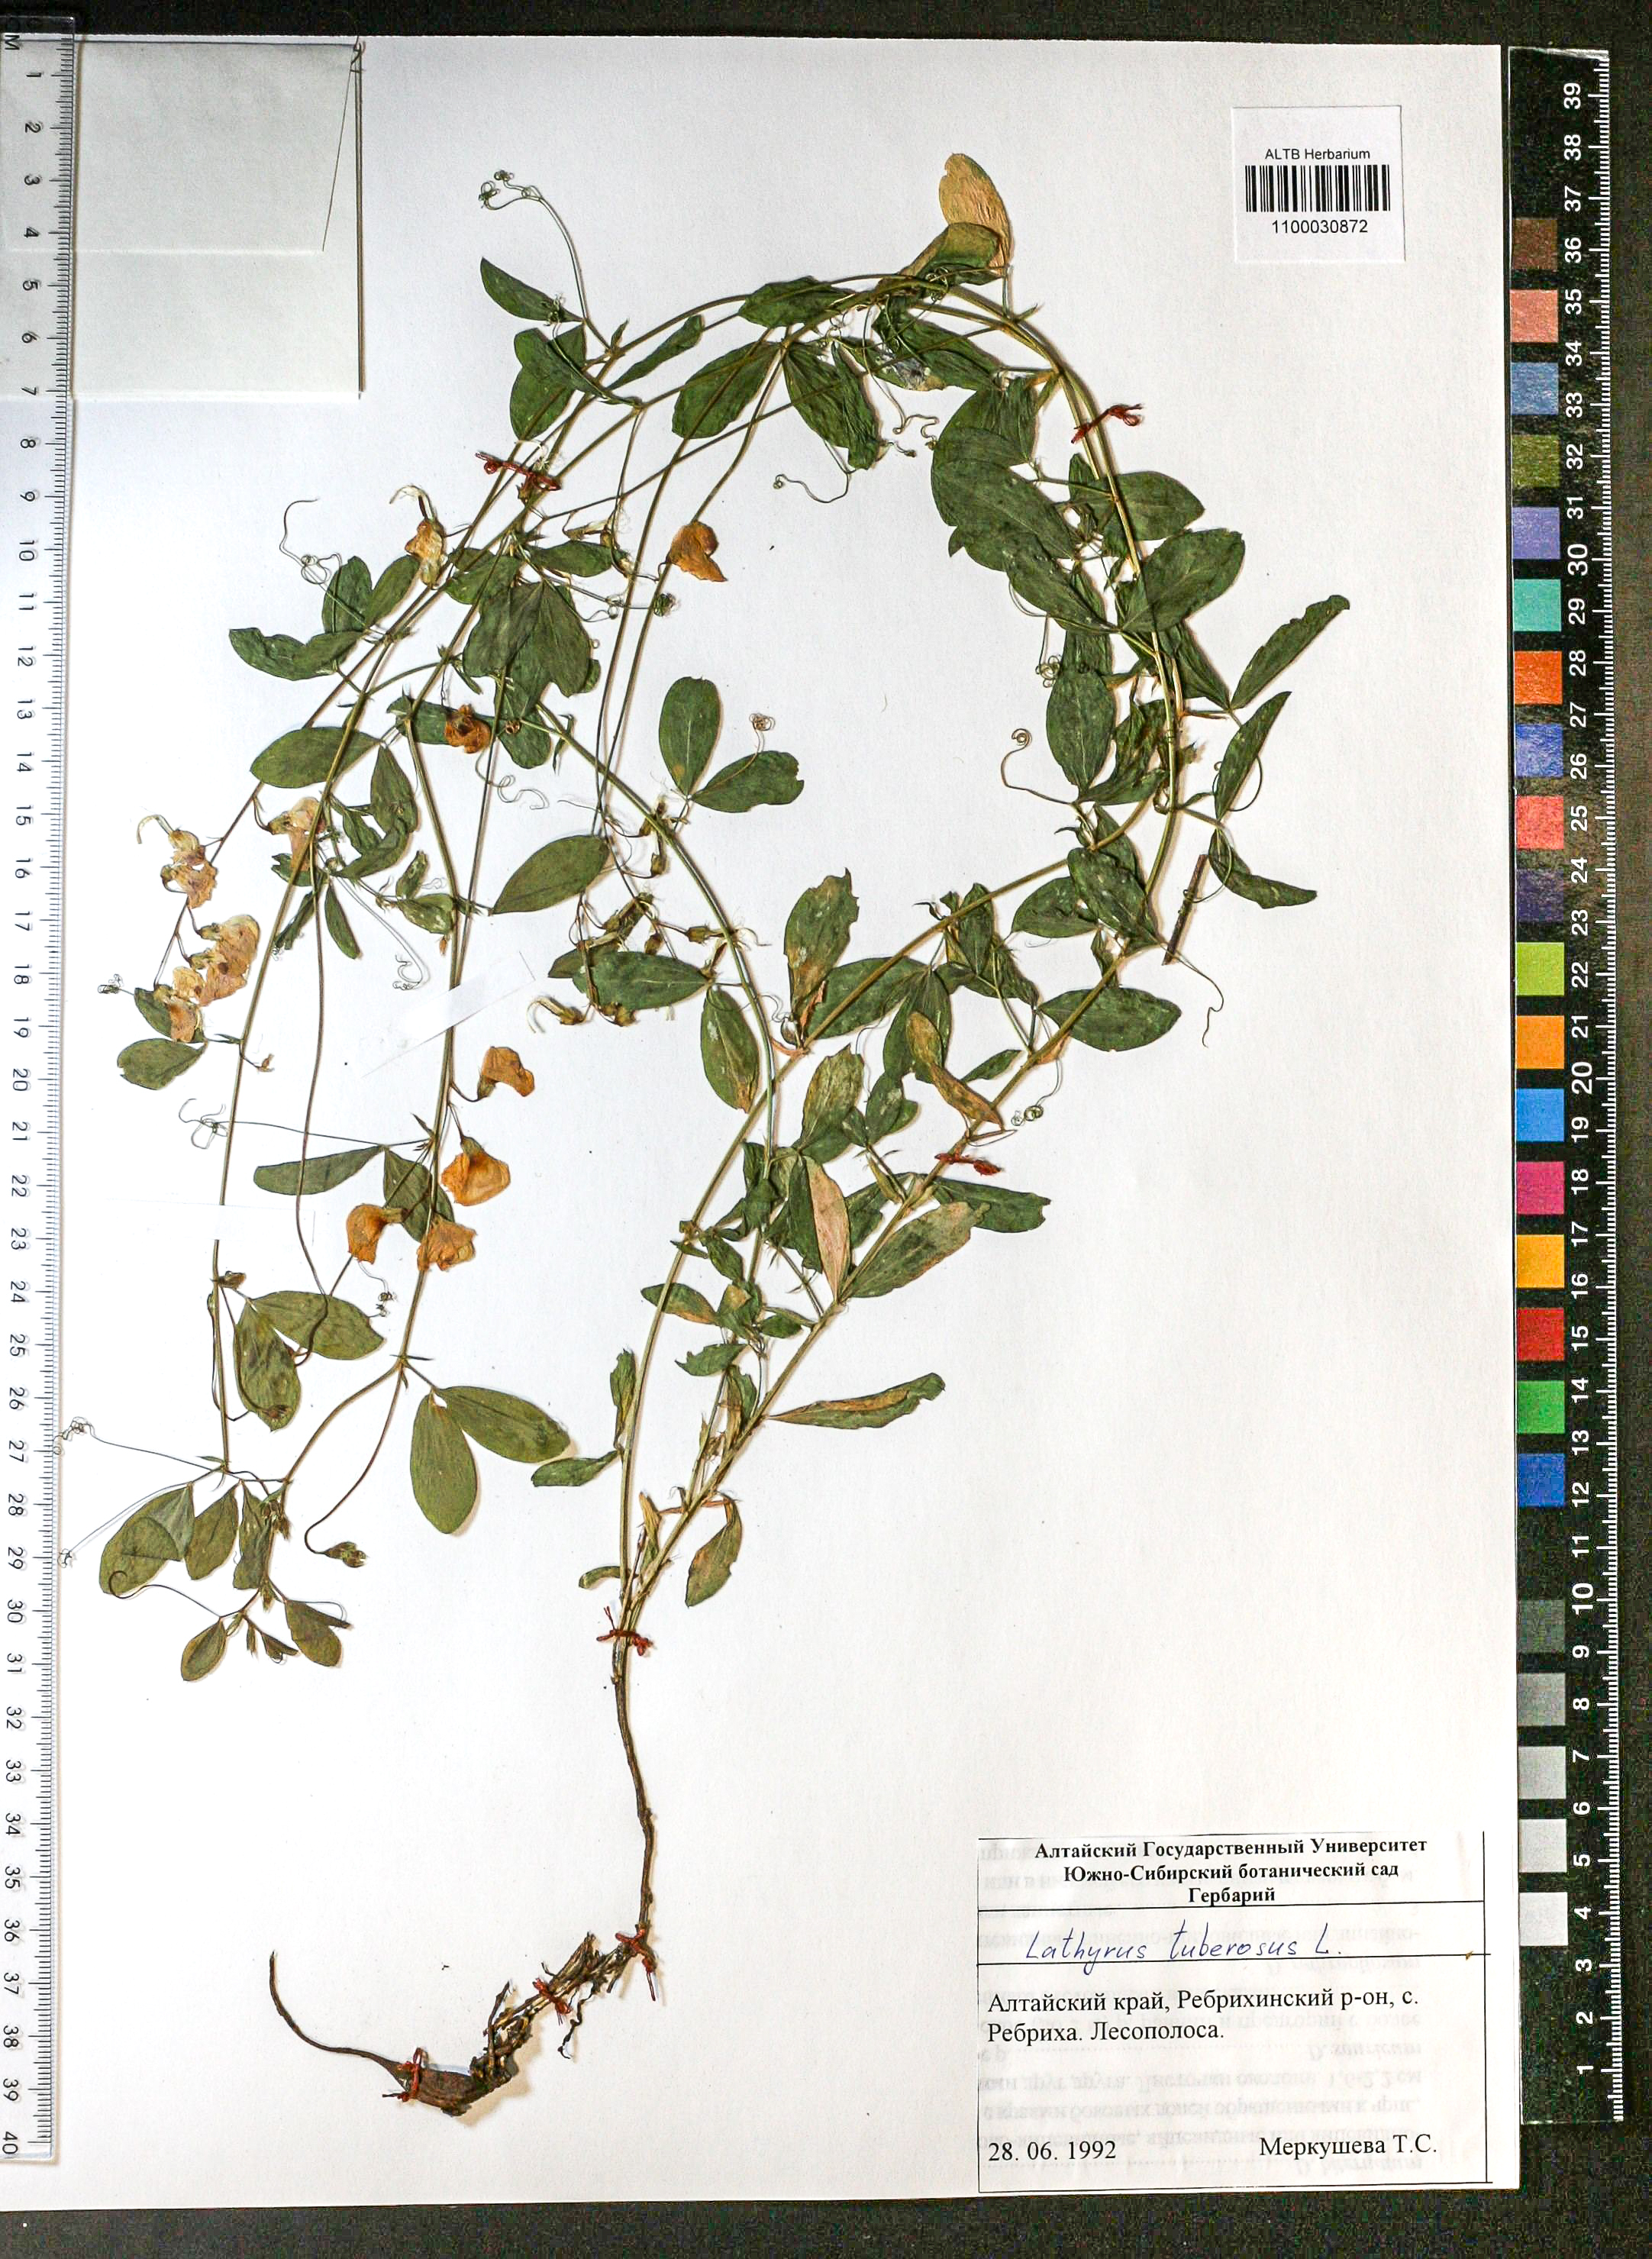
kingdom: Plantae
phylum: Tracheophyta
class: Magnoliopsida
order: Fabales
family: Fabaceae
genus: Lathyrus
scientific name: Lathyrus tuberosus
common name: Tuberous pea
